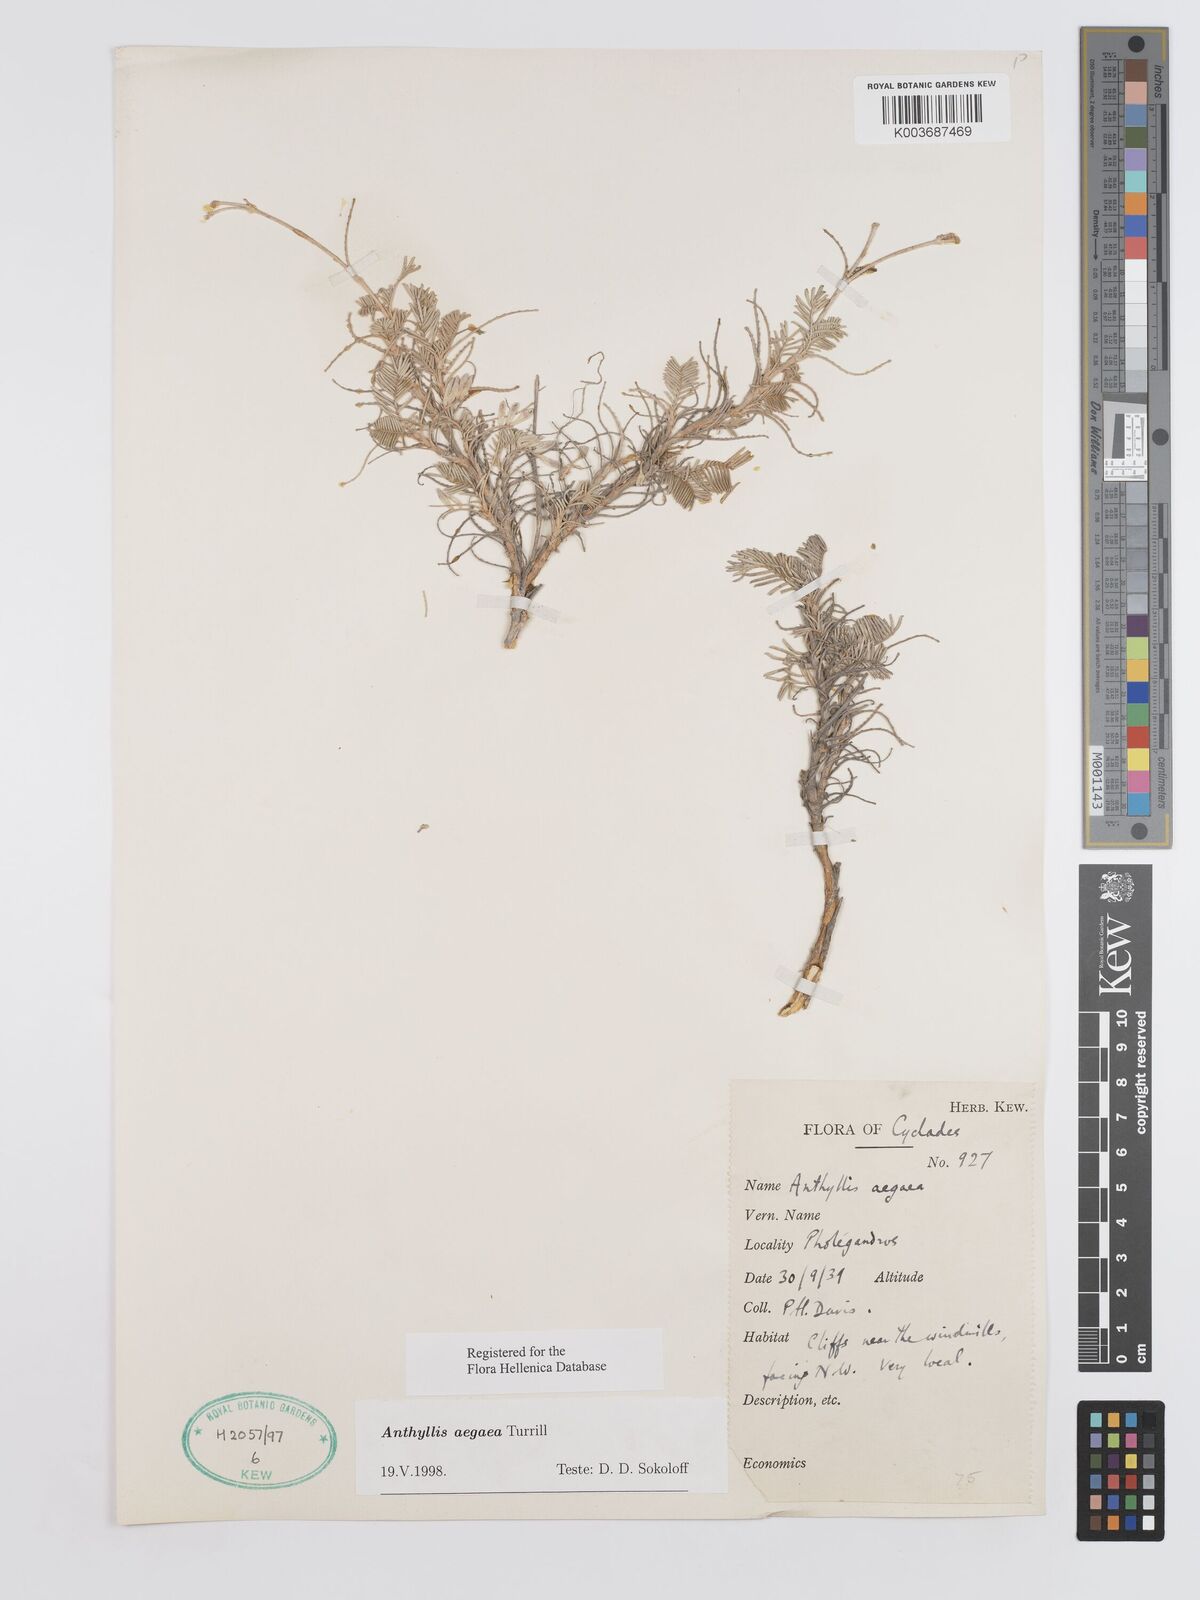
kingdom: Plantae
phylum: Tracheophyta
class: Magnoliopsida
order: Fabales
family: Fabaceae
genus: Anthyllis
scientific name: Anthyllis splendens
